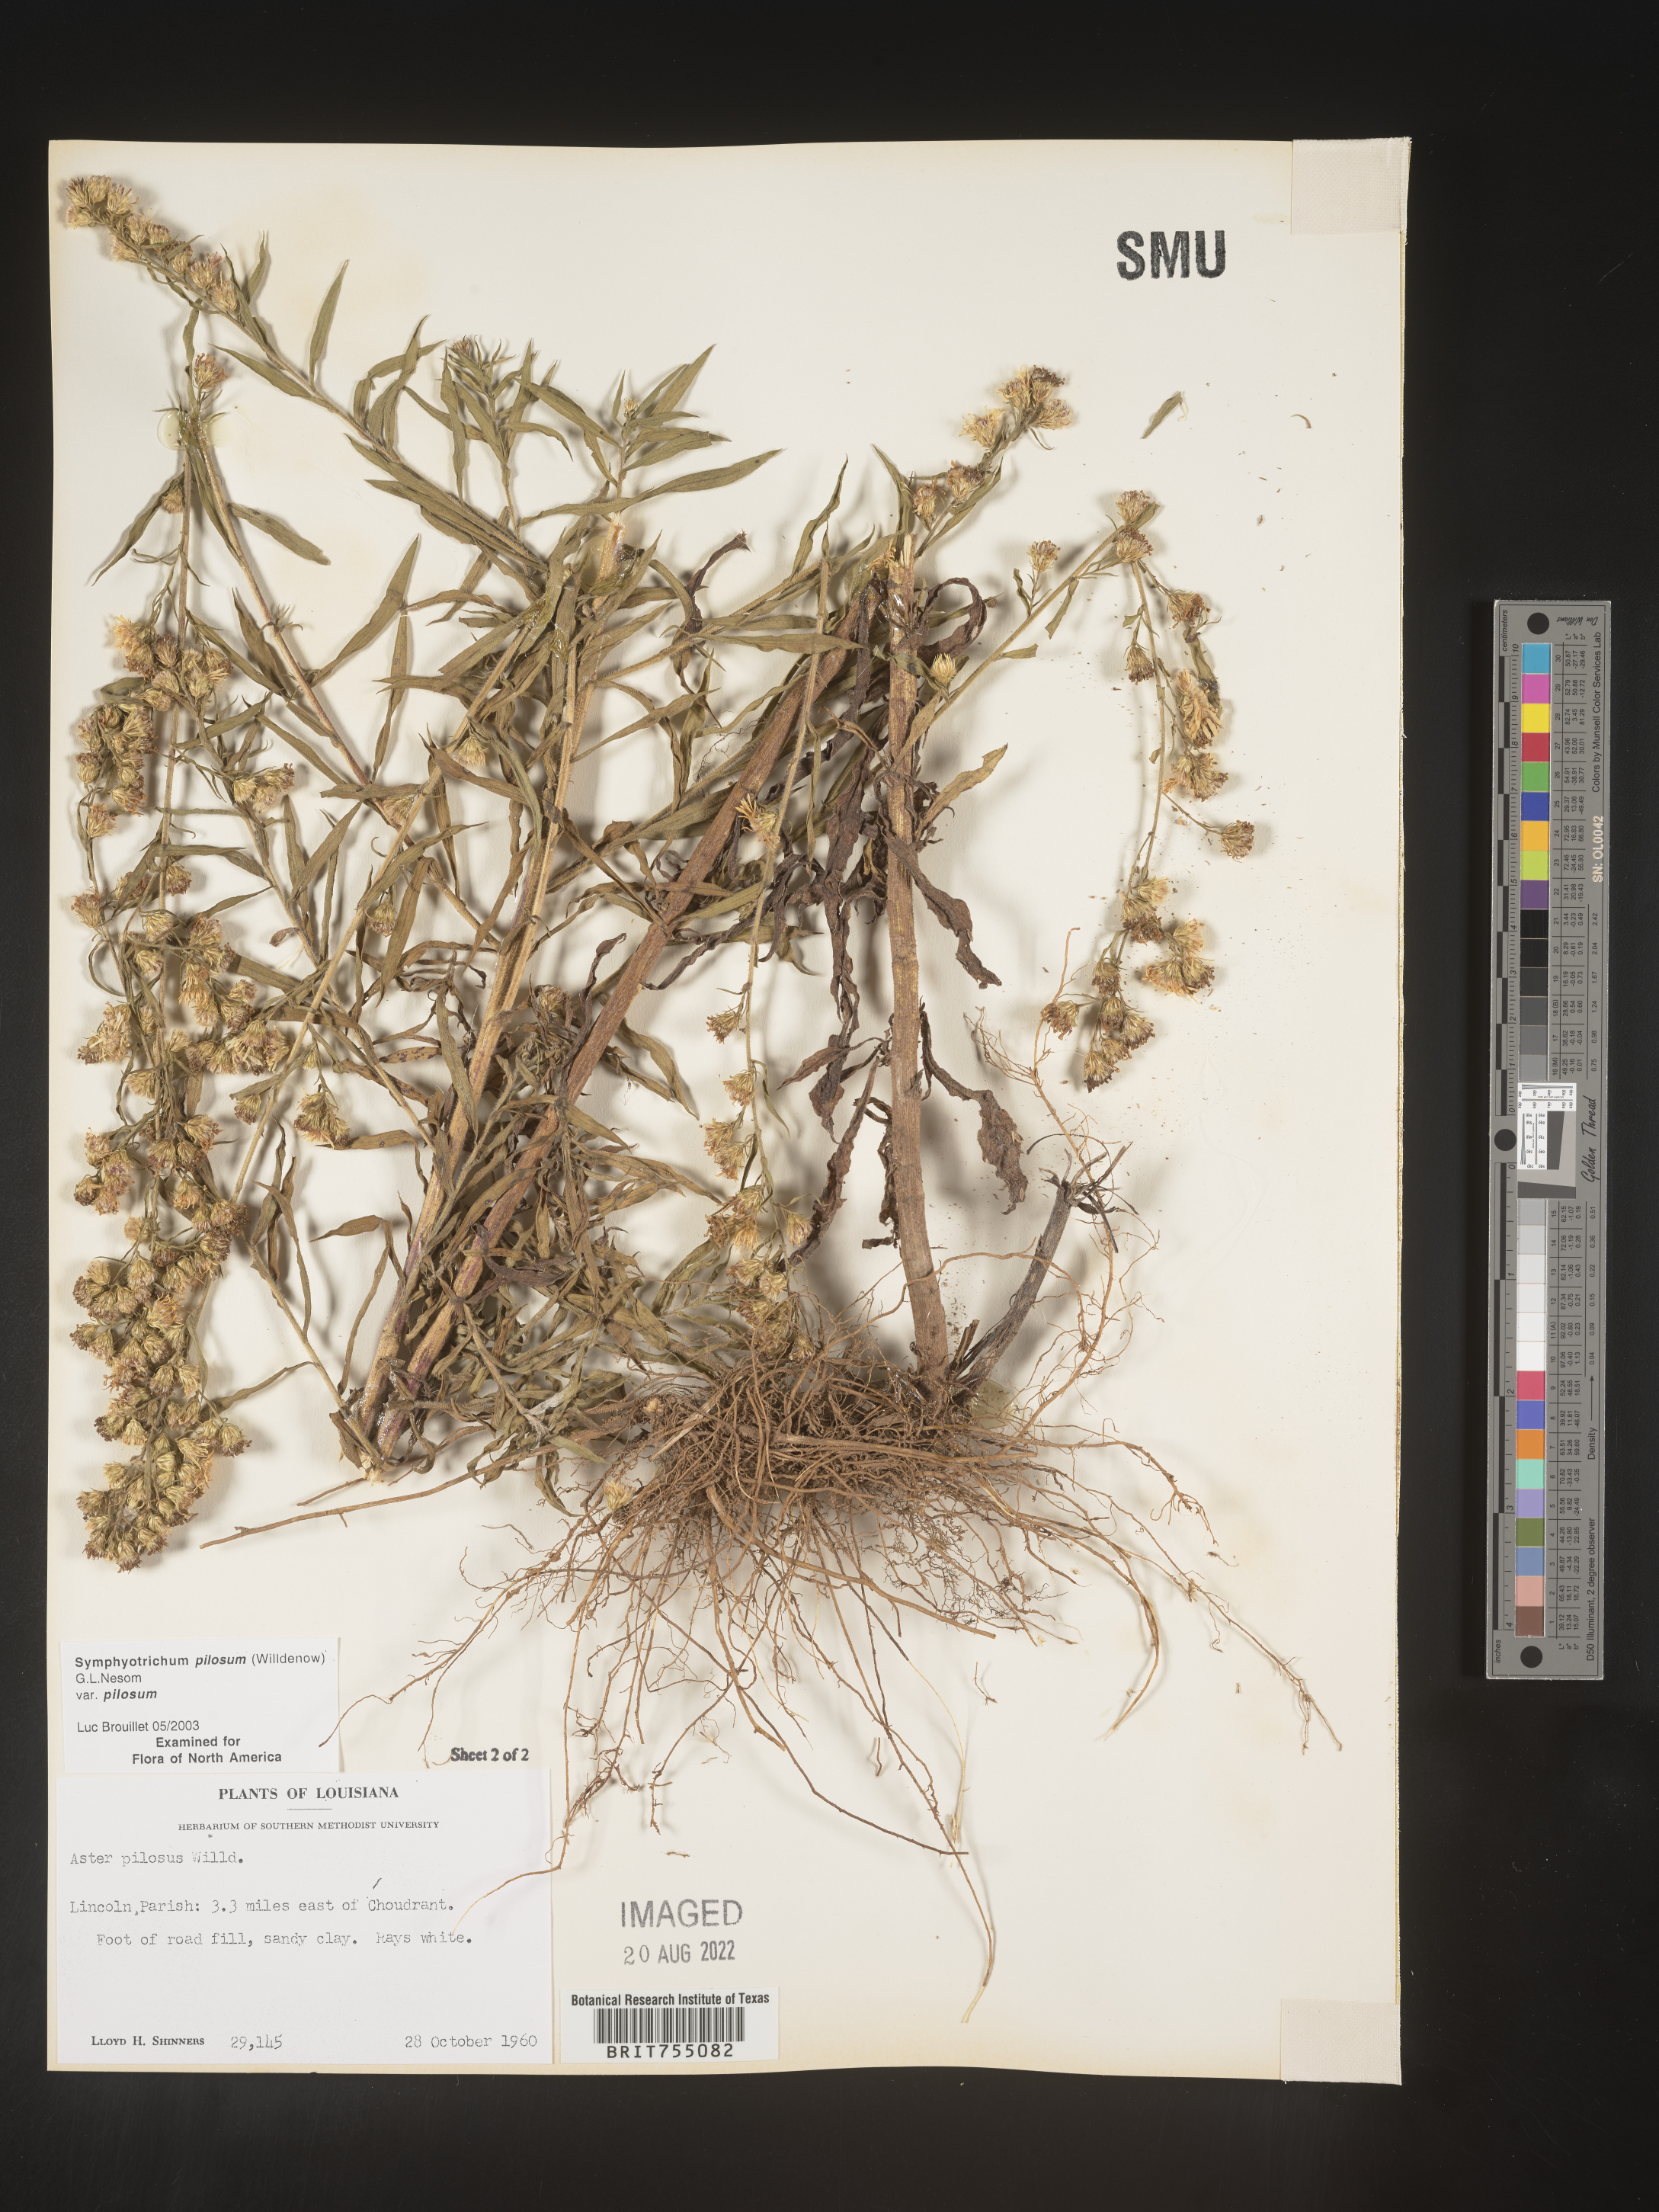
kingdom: Plantae
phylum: Tracheophyta
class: Magnoliopsida
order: Asterales
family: Asteraceae
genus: Symphyotrichum
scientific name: Symphyotrichum pilosum
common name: Awl aster
